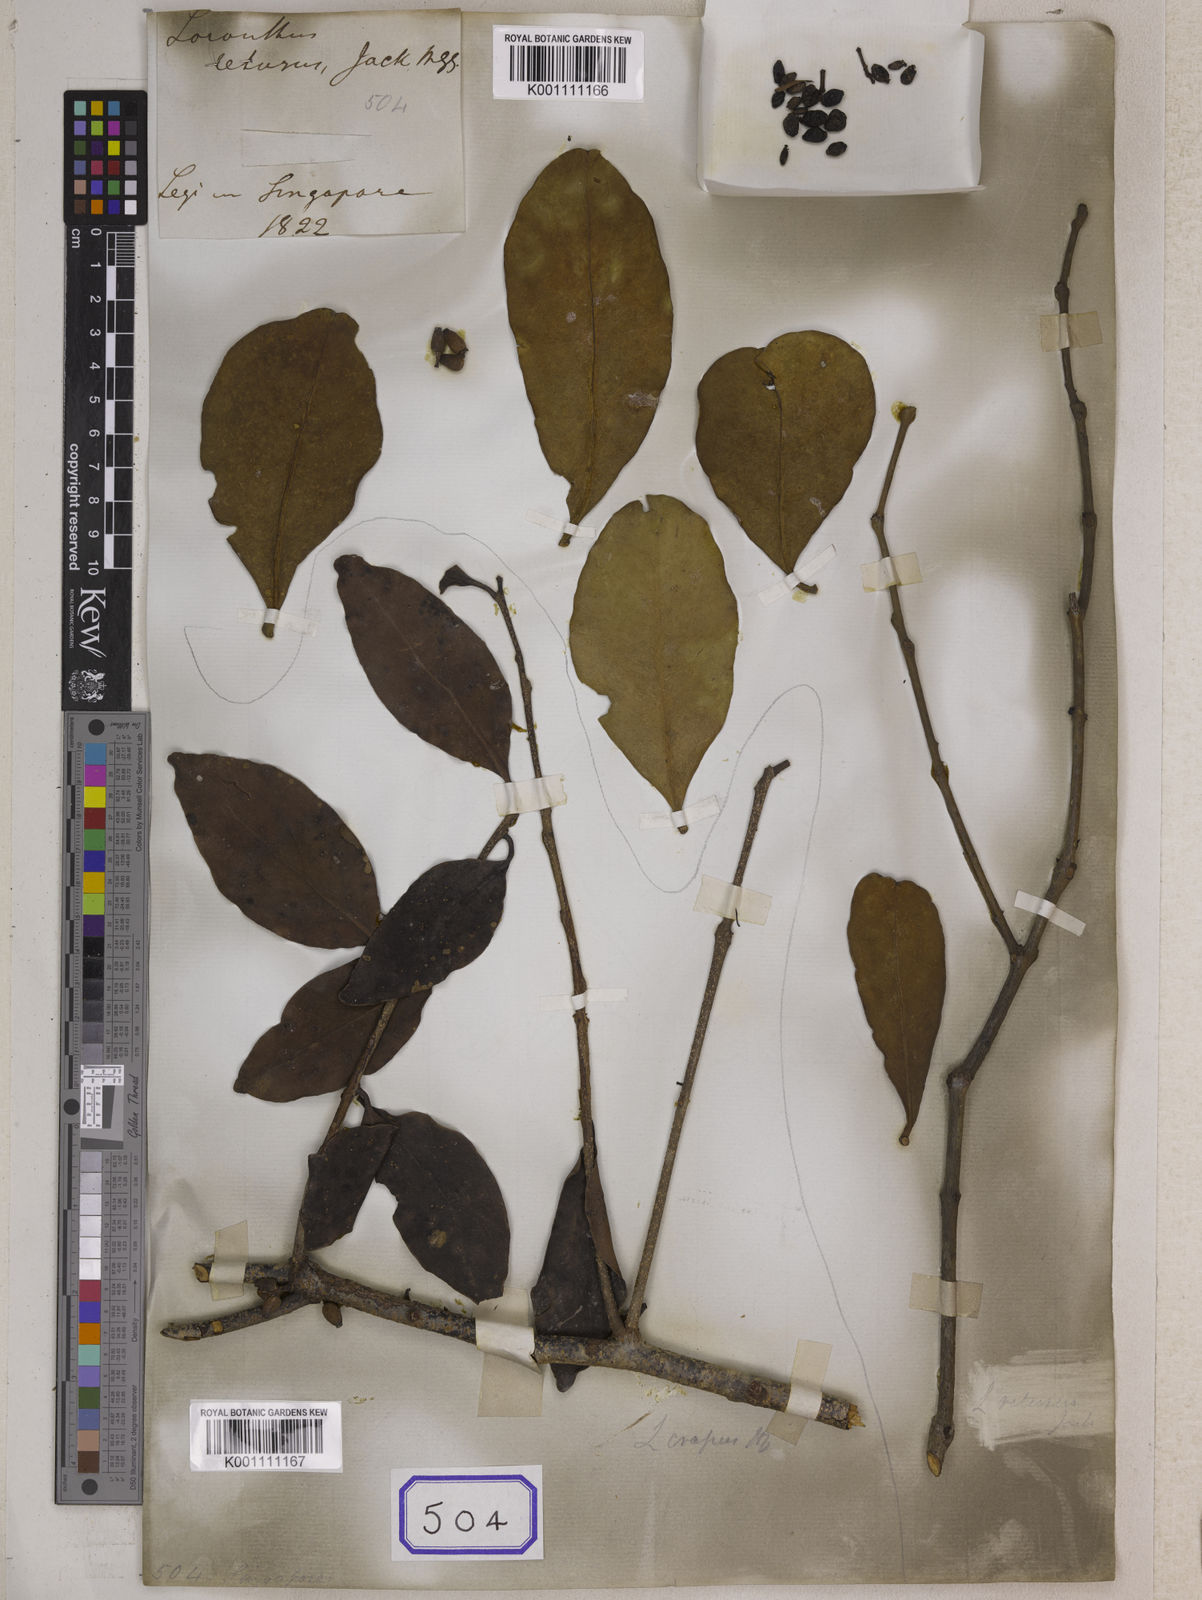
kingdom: Plantae
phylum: Tracheophyta
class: Magnoliopsida
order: Santalales
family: Loranthaceae
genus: Macrosolen
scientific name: Macrosolen retusus
